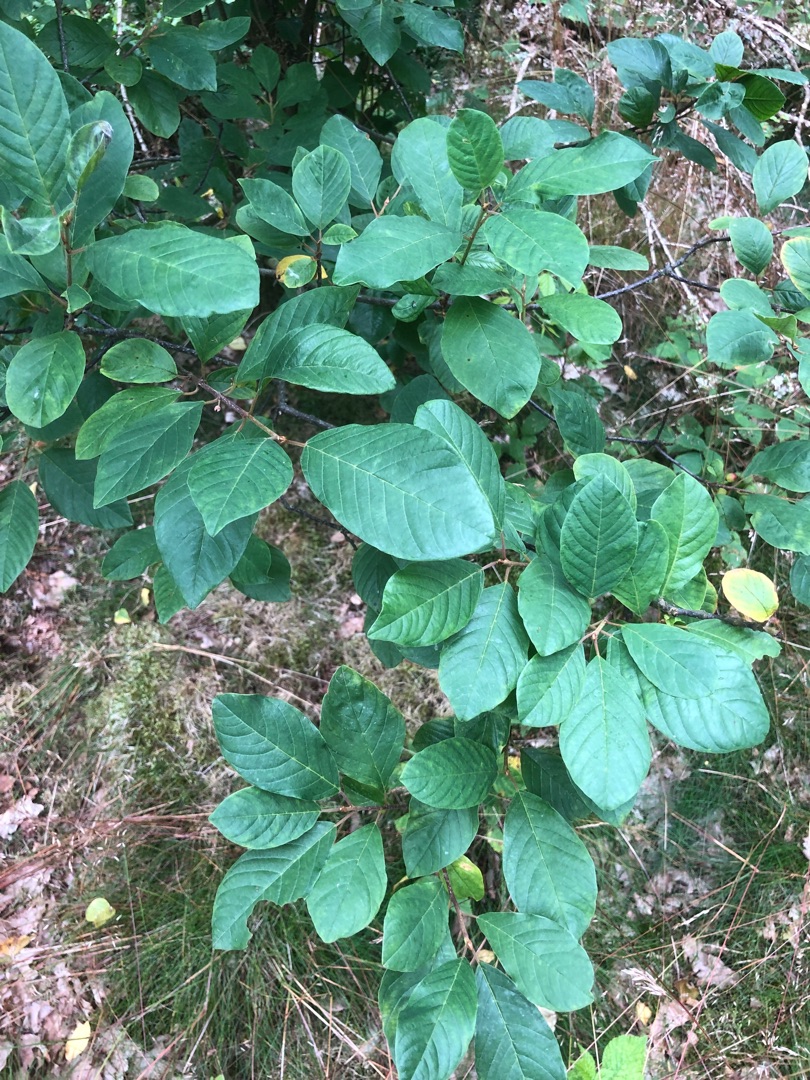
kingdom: Plantae
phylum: Tracheophyta
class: Magnoliopsida
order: Rosales
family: Rhamnaceae
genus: Frangula
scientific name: Frangula alnus
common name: Tørst
